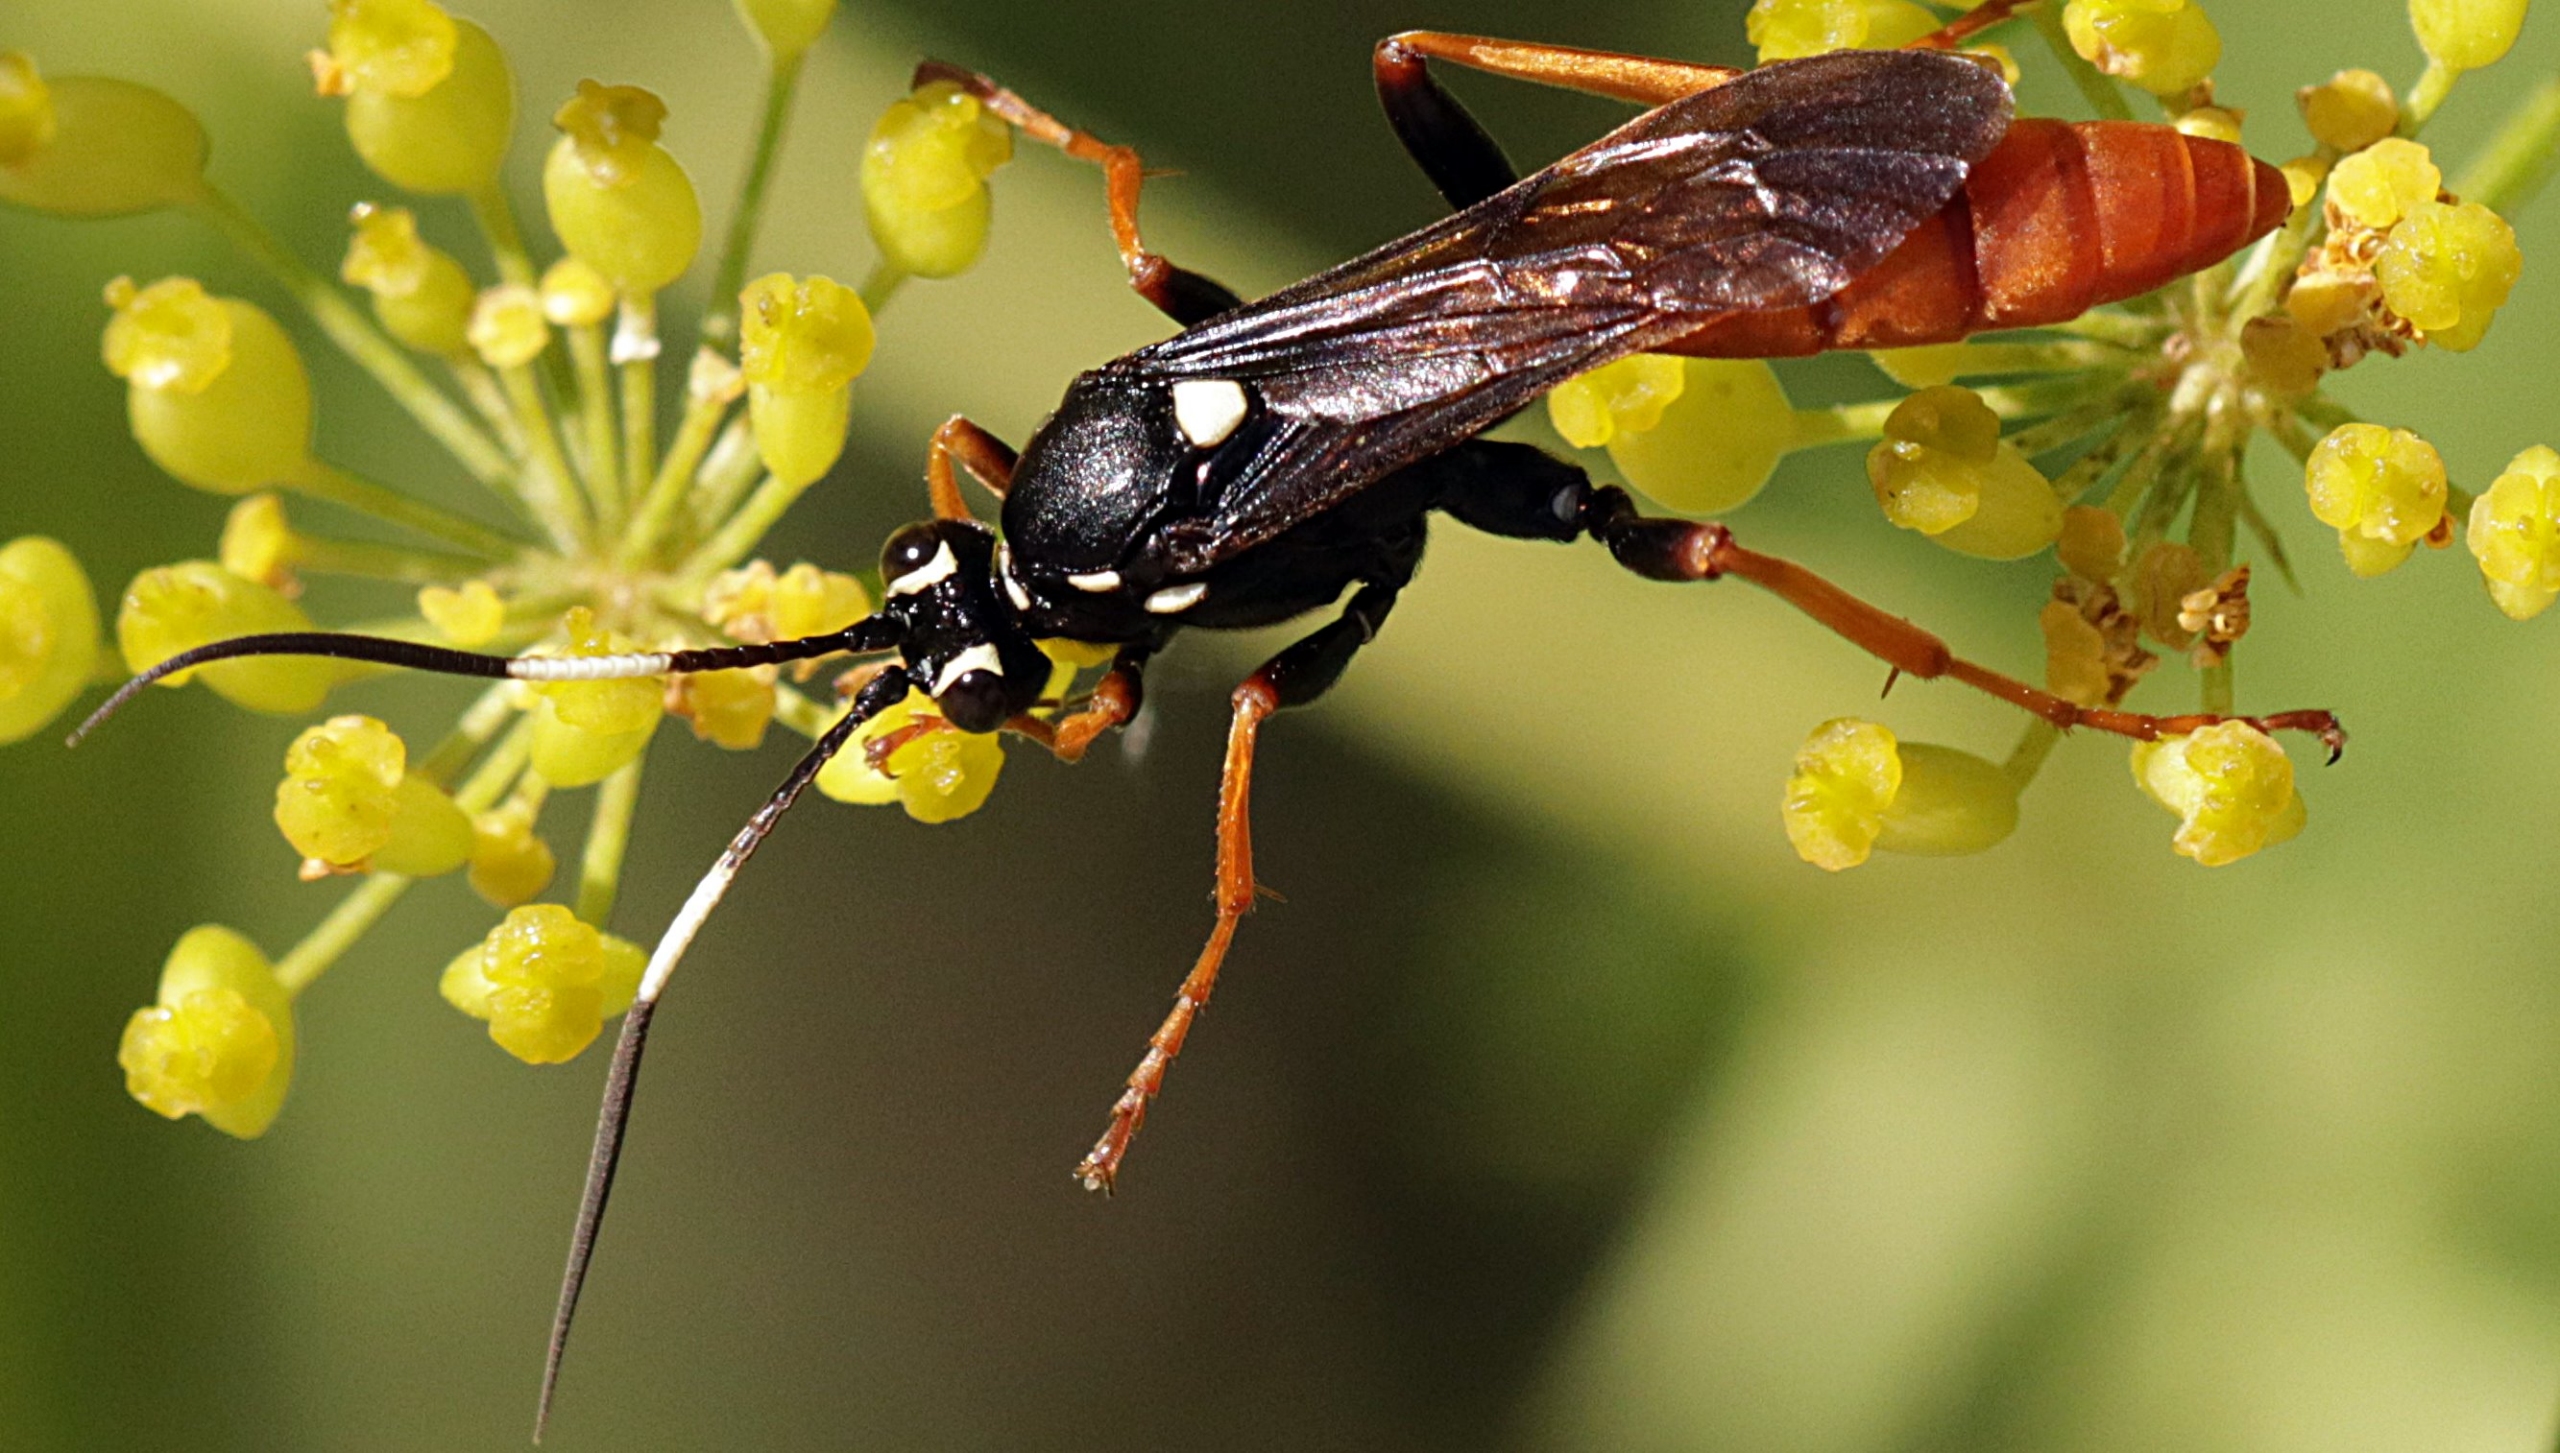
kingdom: Animalia
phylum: Arthropoda
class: Insecta
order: Hymenoptera
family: Ichneumonidae
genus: Amblyjoppa
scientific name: Amblyjoppa fuscipennis
